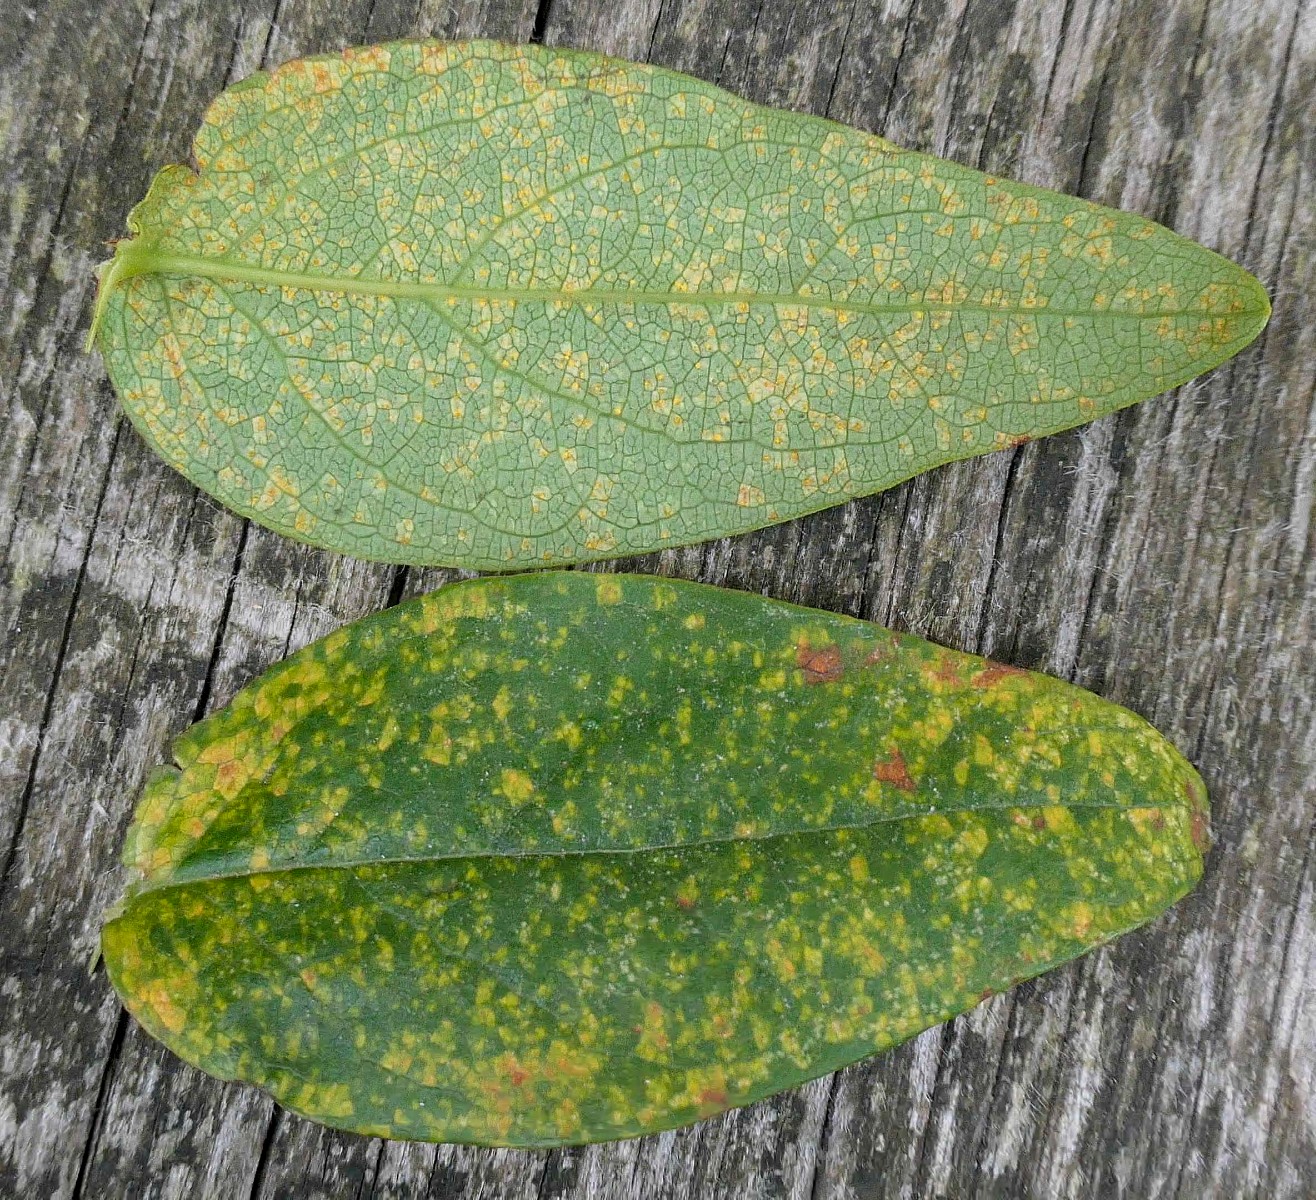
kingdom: Fungi
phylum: Basidiomycota
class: Pucciniomycetes
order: Pucciniales
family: Melampsoraceae
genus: Melampsora
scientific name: Melampsora hypericorum
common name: Tutsan rust
